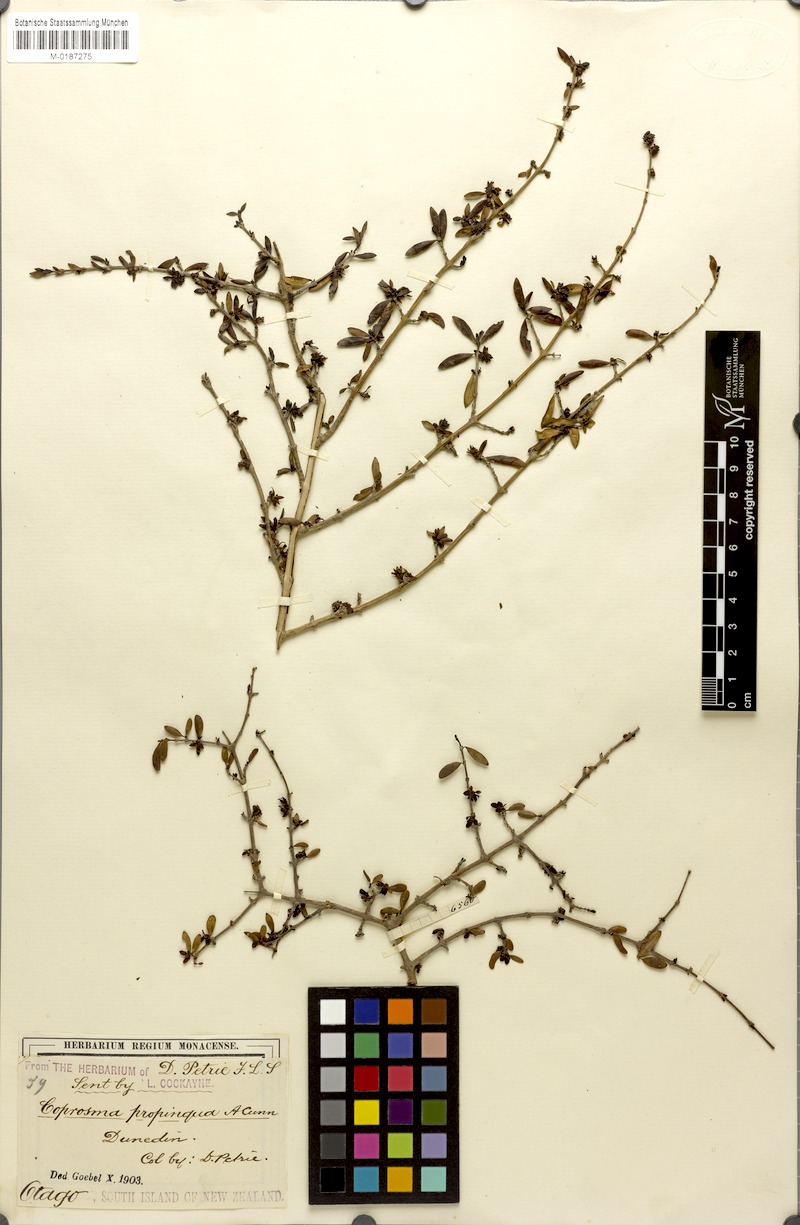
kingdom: Plantae
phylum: Tracheophyta
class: Magnoliopsida
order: Gentianales
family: Rubiaceae
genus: Coprosma
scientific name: Coprosma propinqua
